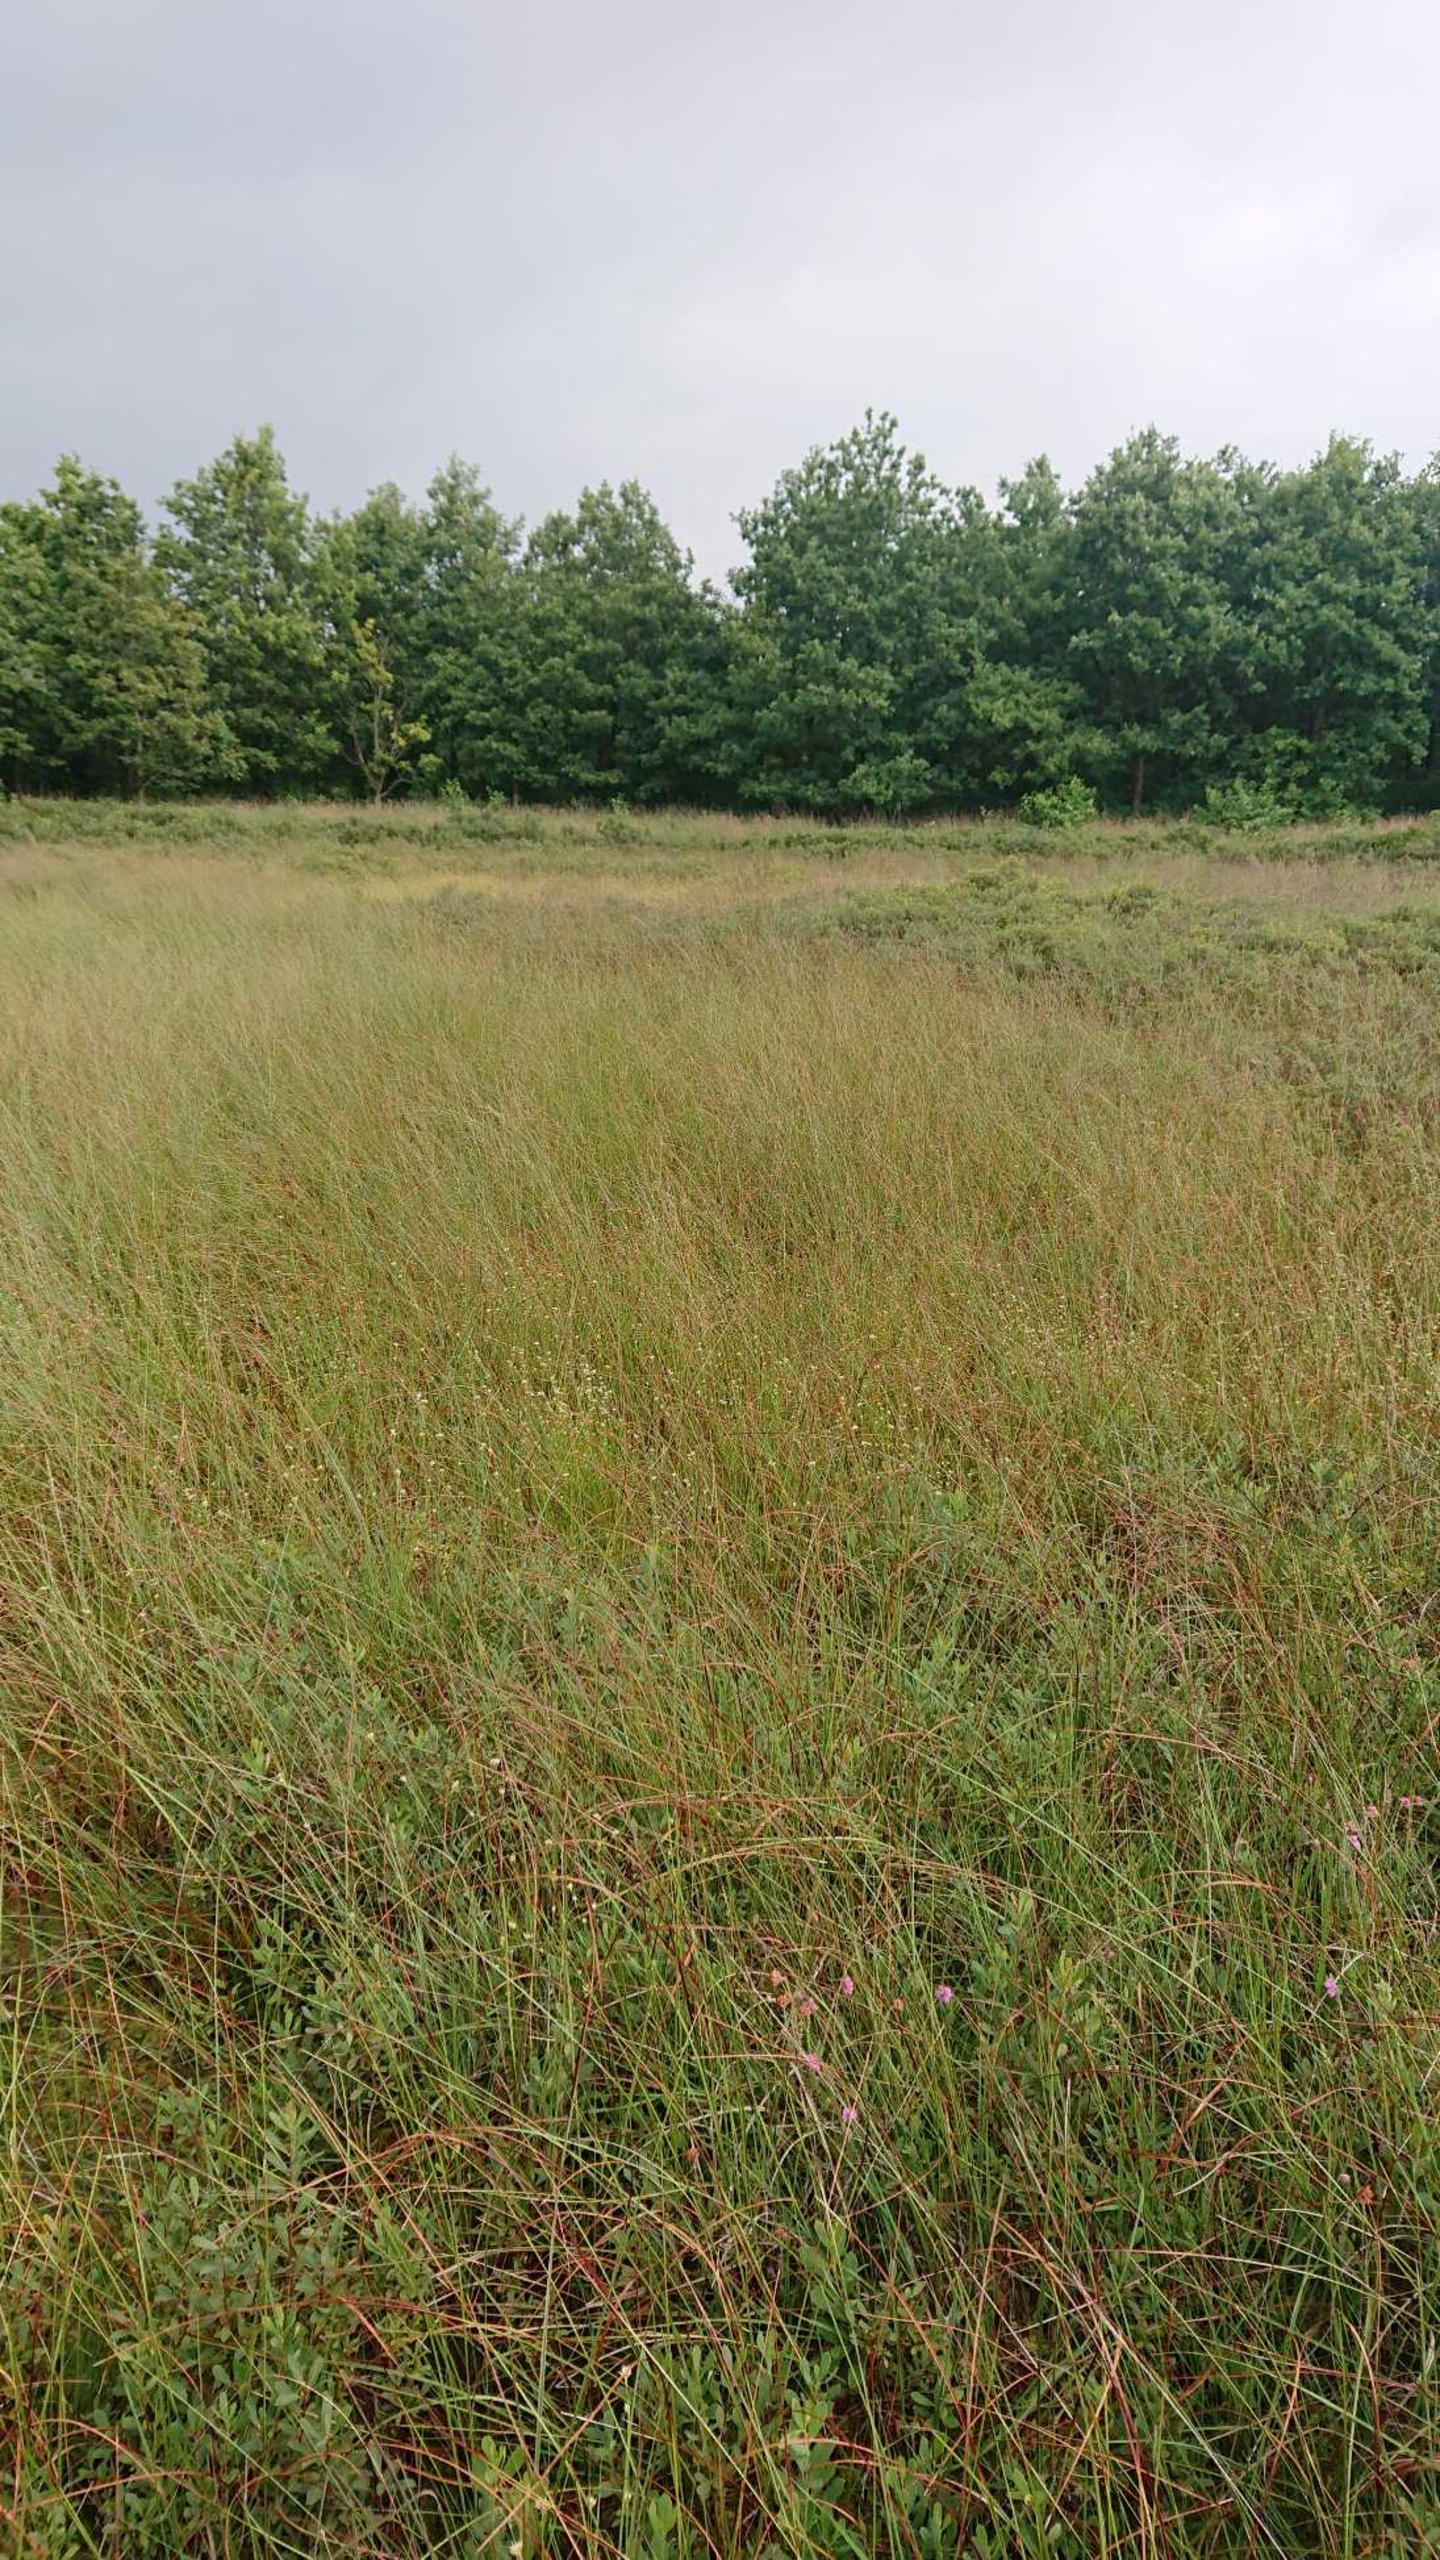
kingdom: Plantae
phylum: Tracheophyta
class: Liliopsida
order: Poales
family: Cyperaceae
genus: Rhynchospora
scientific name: Rhynchospora alba
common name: Hvid næbfrø
